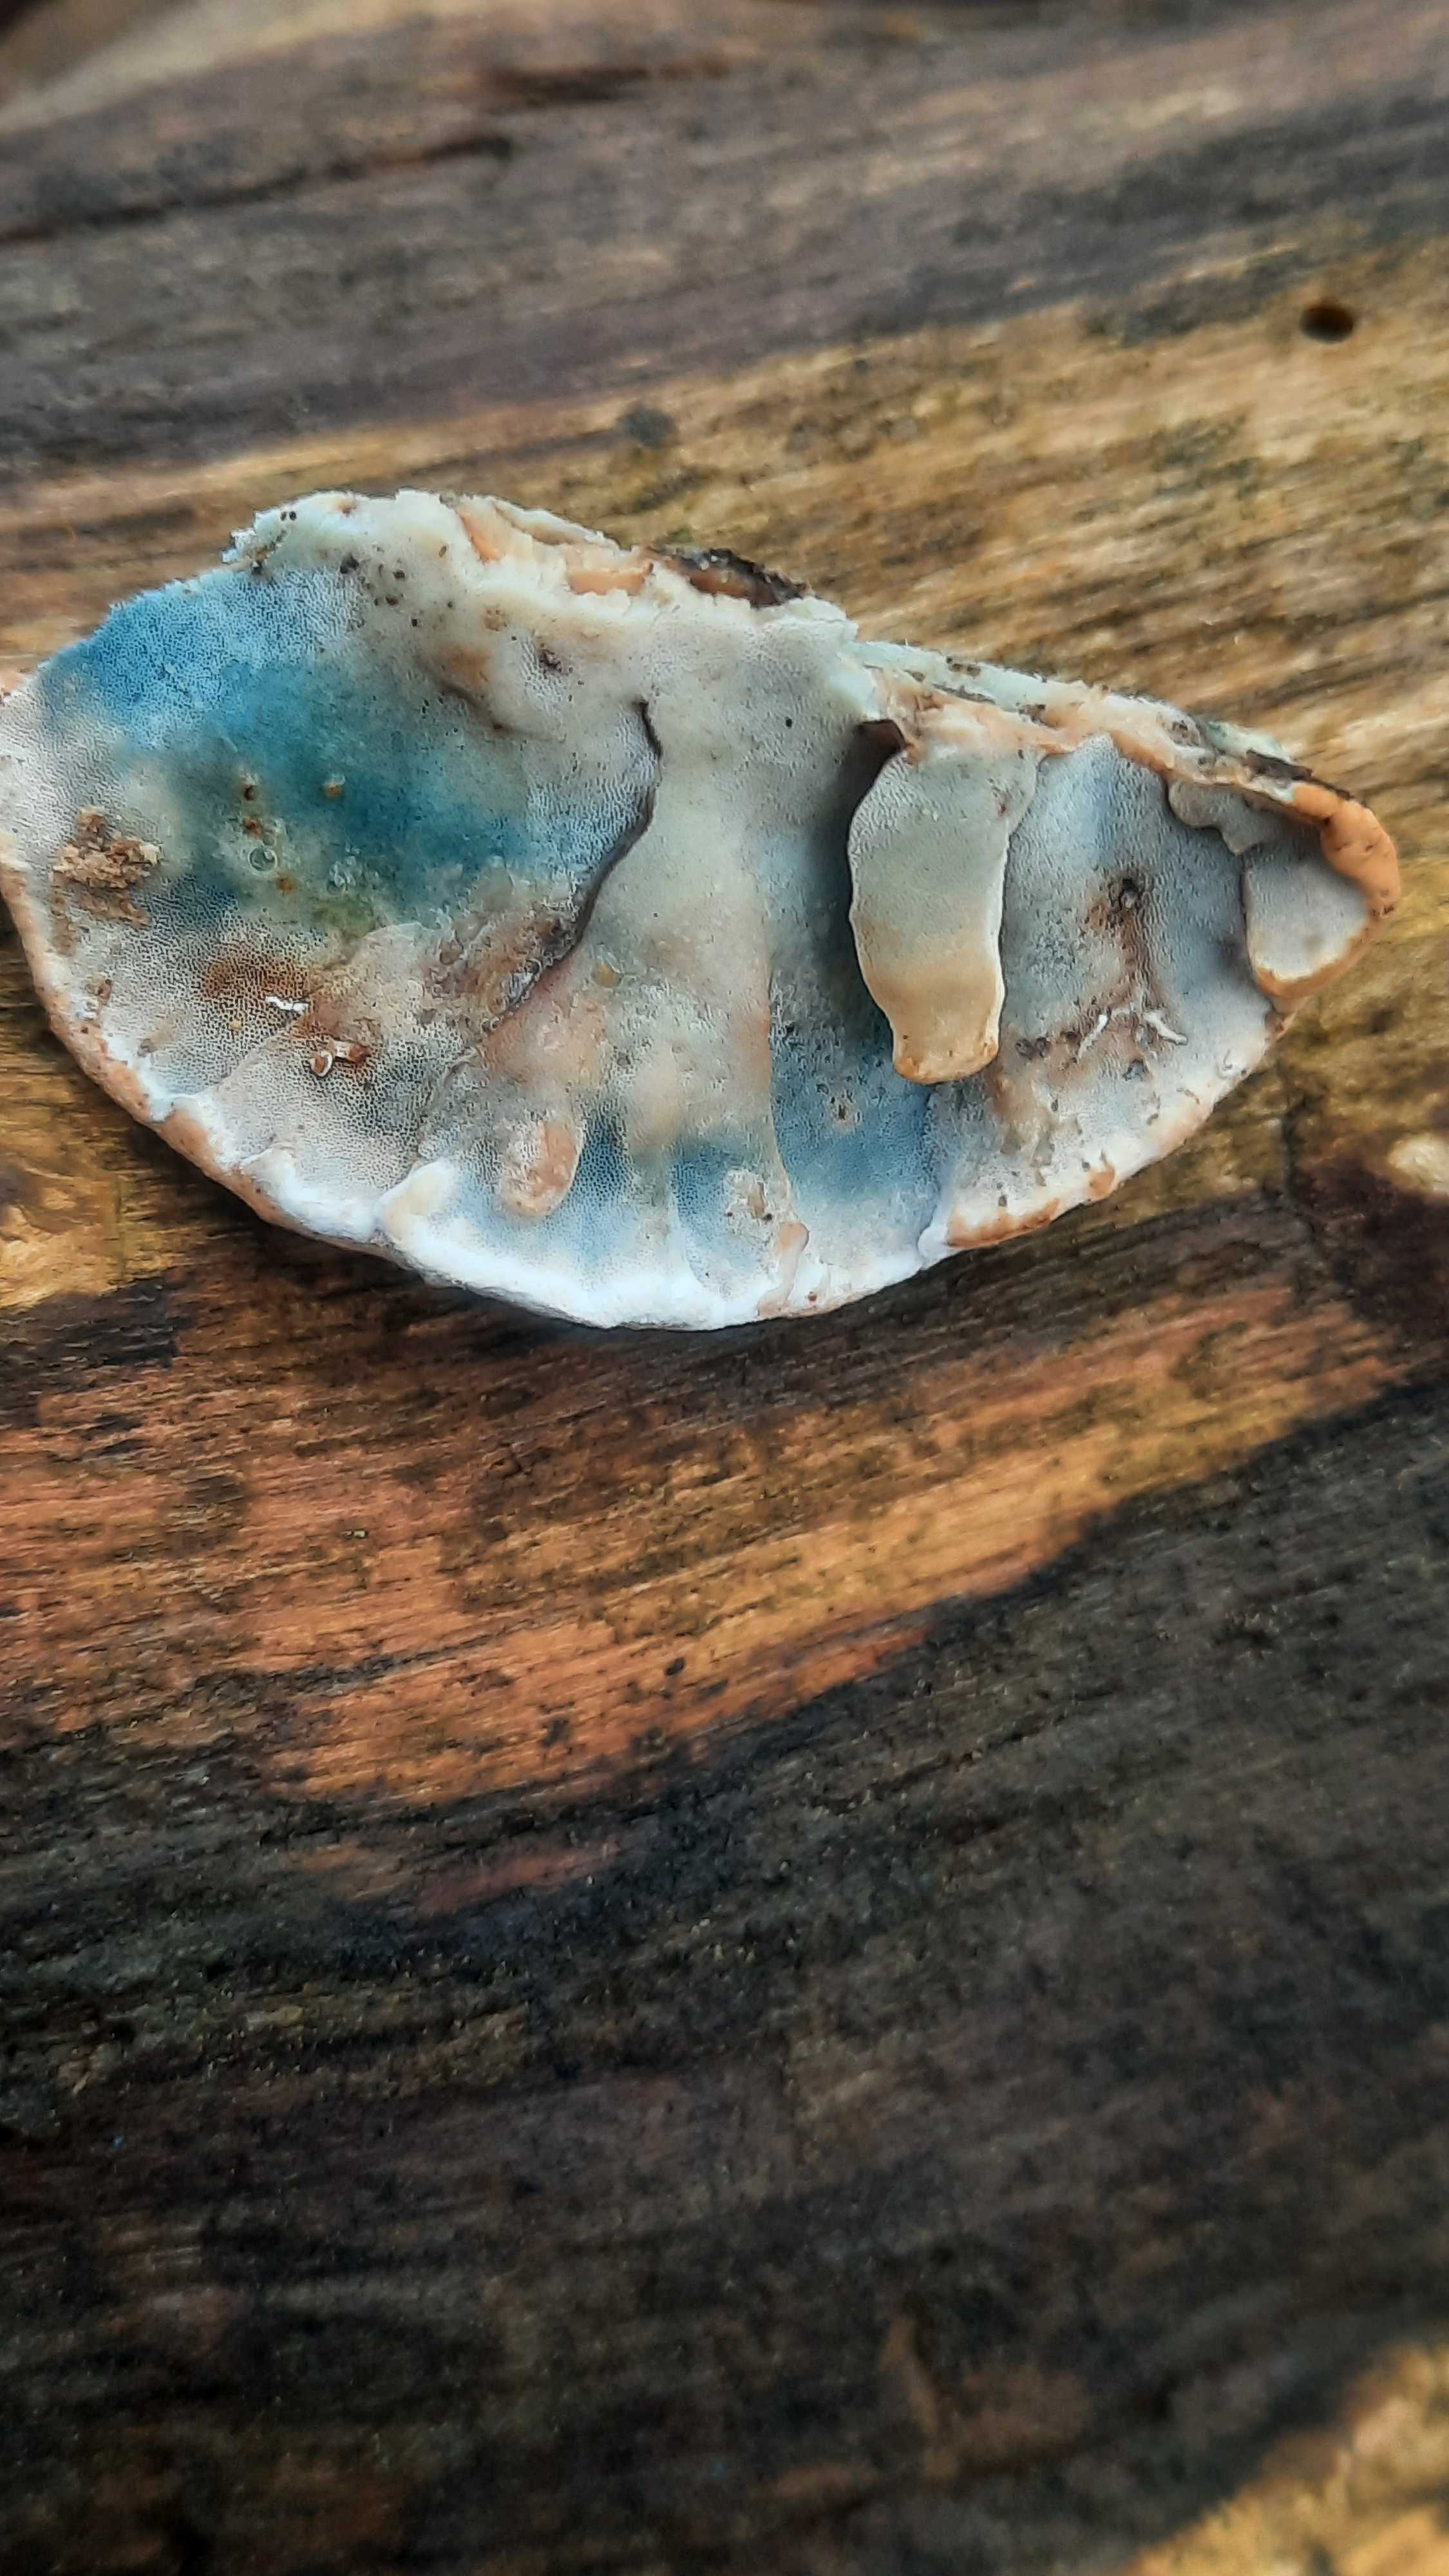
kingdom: Fungi
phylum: Basidiomycota
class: Agaricomycetes
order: Polyporales
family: Incrustoporiaceae
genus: Skeletocutis
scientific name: Skeletocutis nemoralis
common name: stor krystalporesvamp
